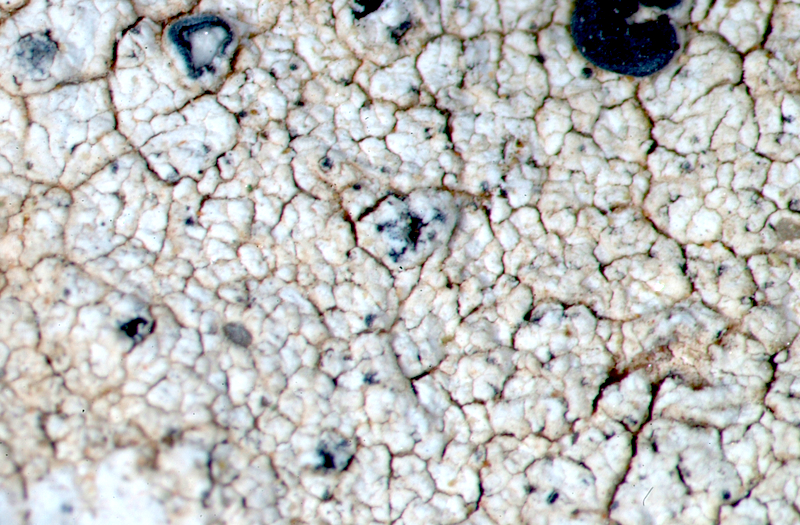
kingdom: Fungi
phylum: Ascomycota
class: Lecanoromycetes
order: Caliciales
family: Caliciaceae
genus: Buellia
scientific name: Buellia
